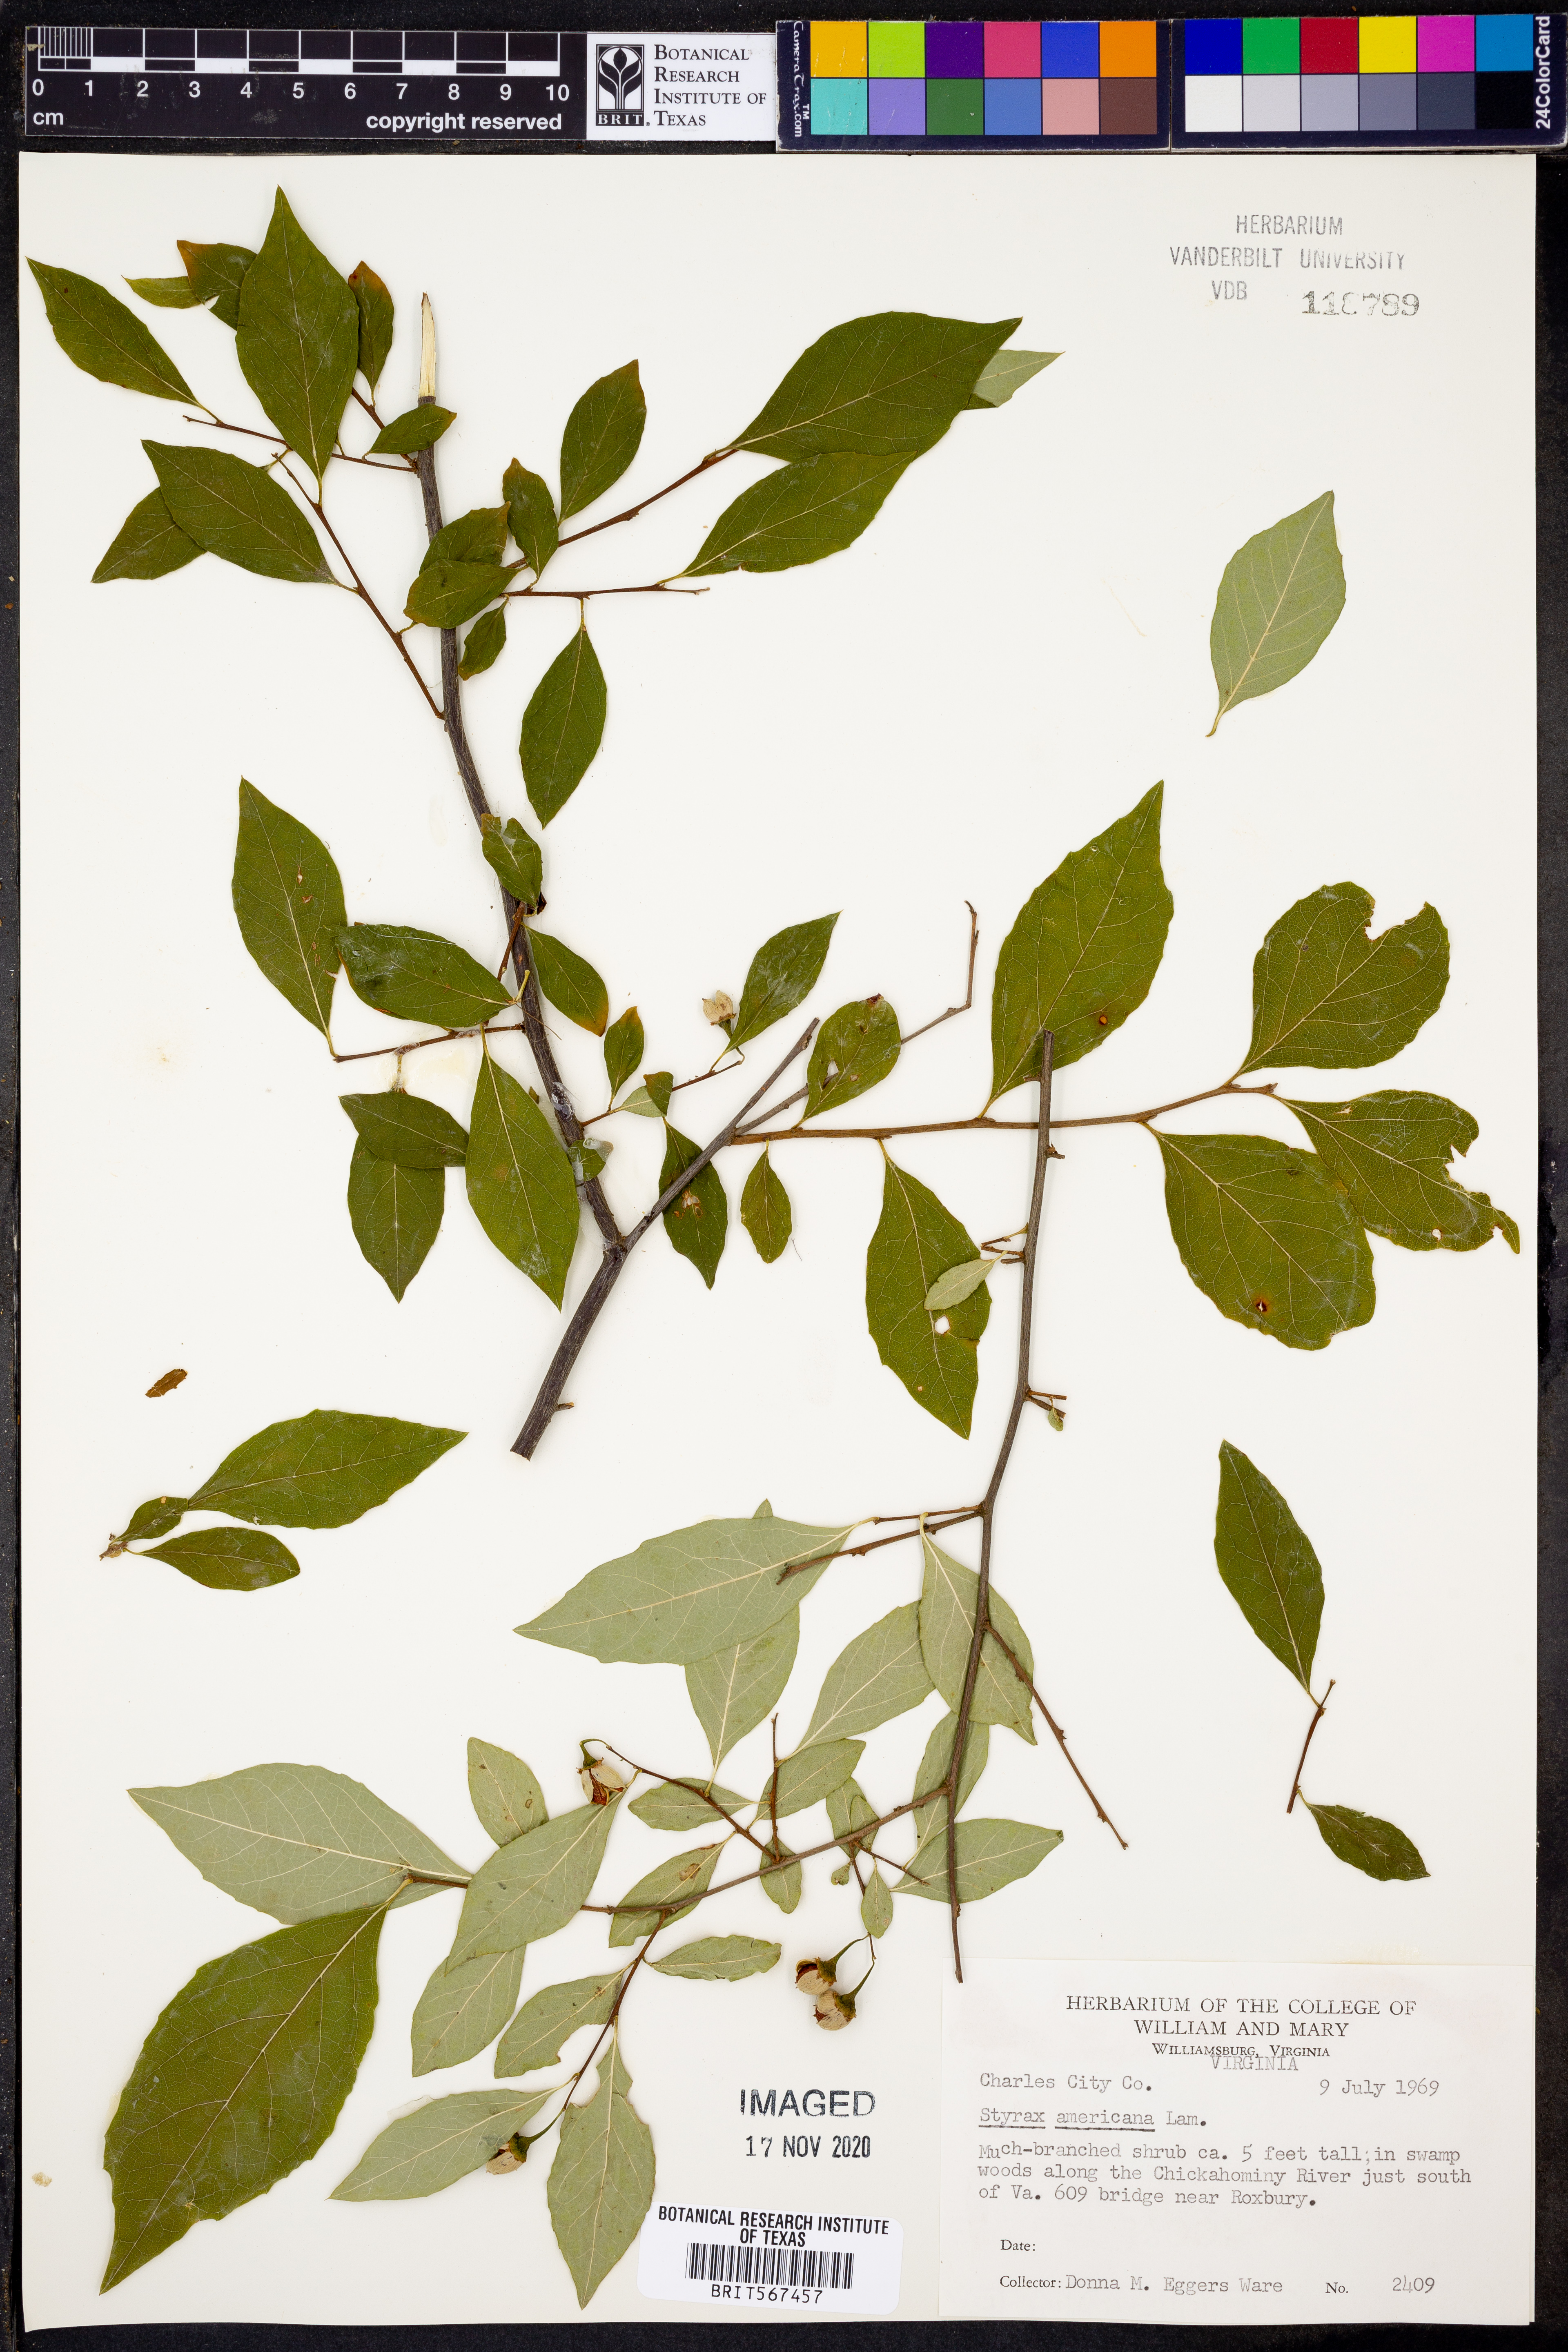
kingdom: Plantae
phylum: Tracheophyta
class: Magnoliopsida
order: Ericales
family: Styracaceae
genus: Styrax
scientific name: Styrax americanus
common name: American snowbell
